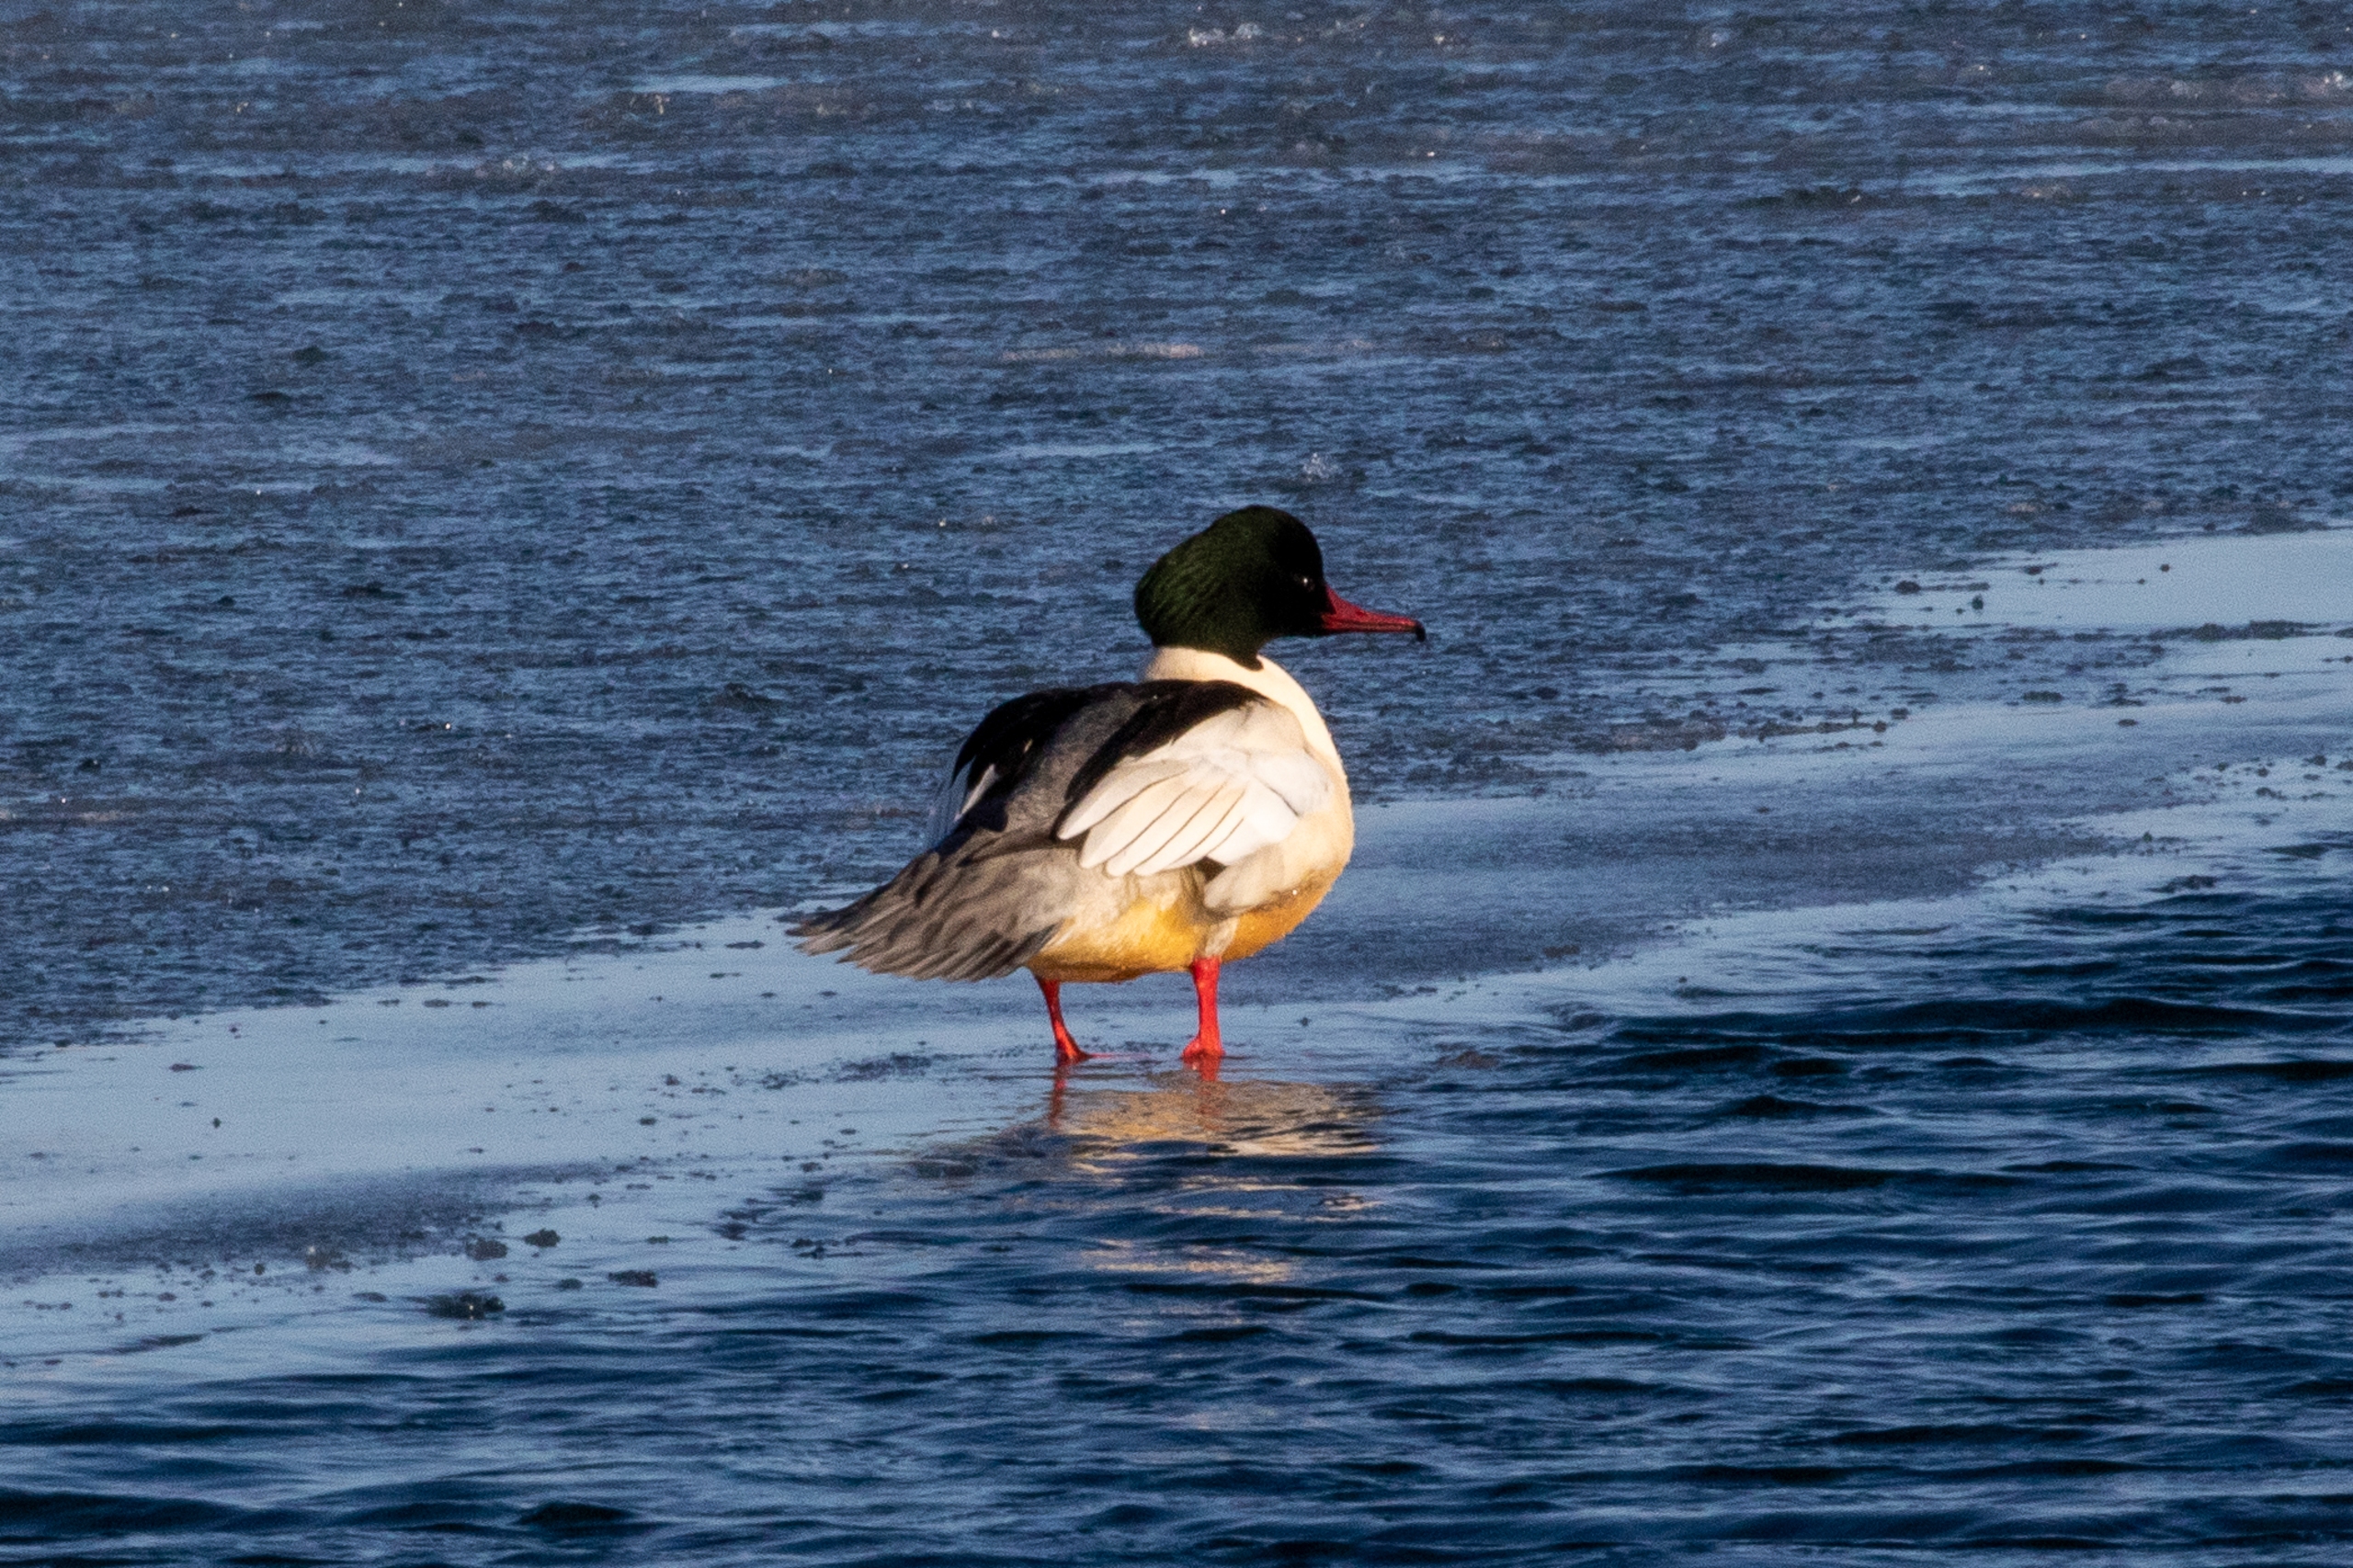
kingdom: Animalia
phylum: Chordata
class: Aves
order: Anseriformes
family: Anatidae
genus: Mergus
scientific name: Mergus merganser
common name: Stor skallesluger
